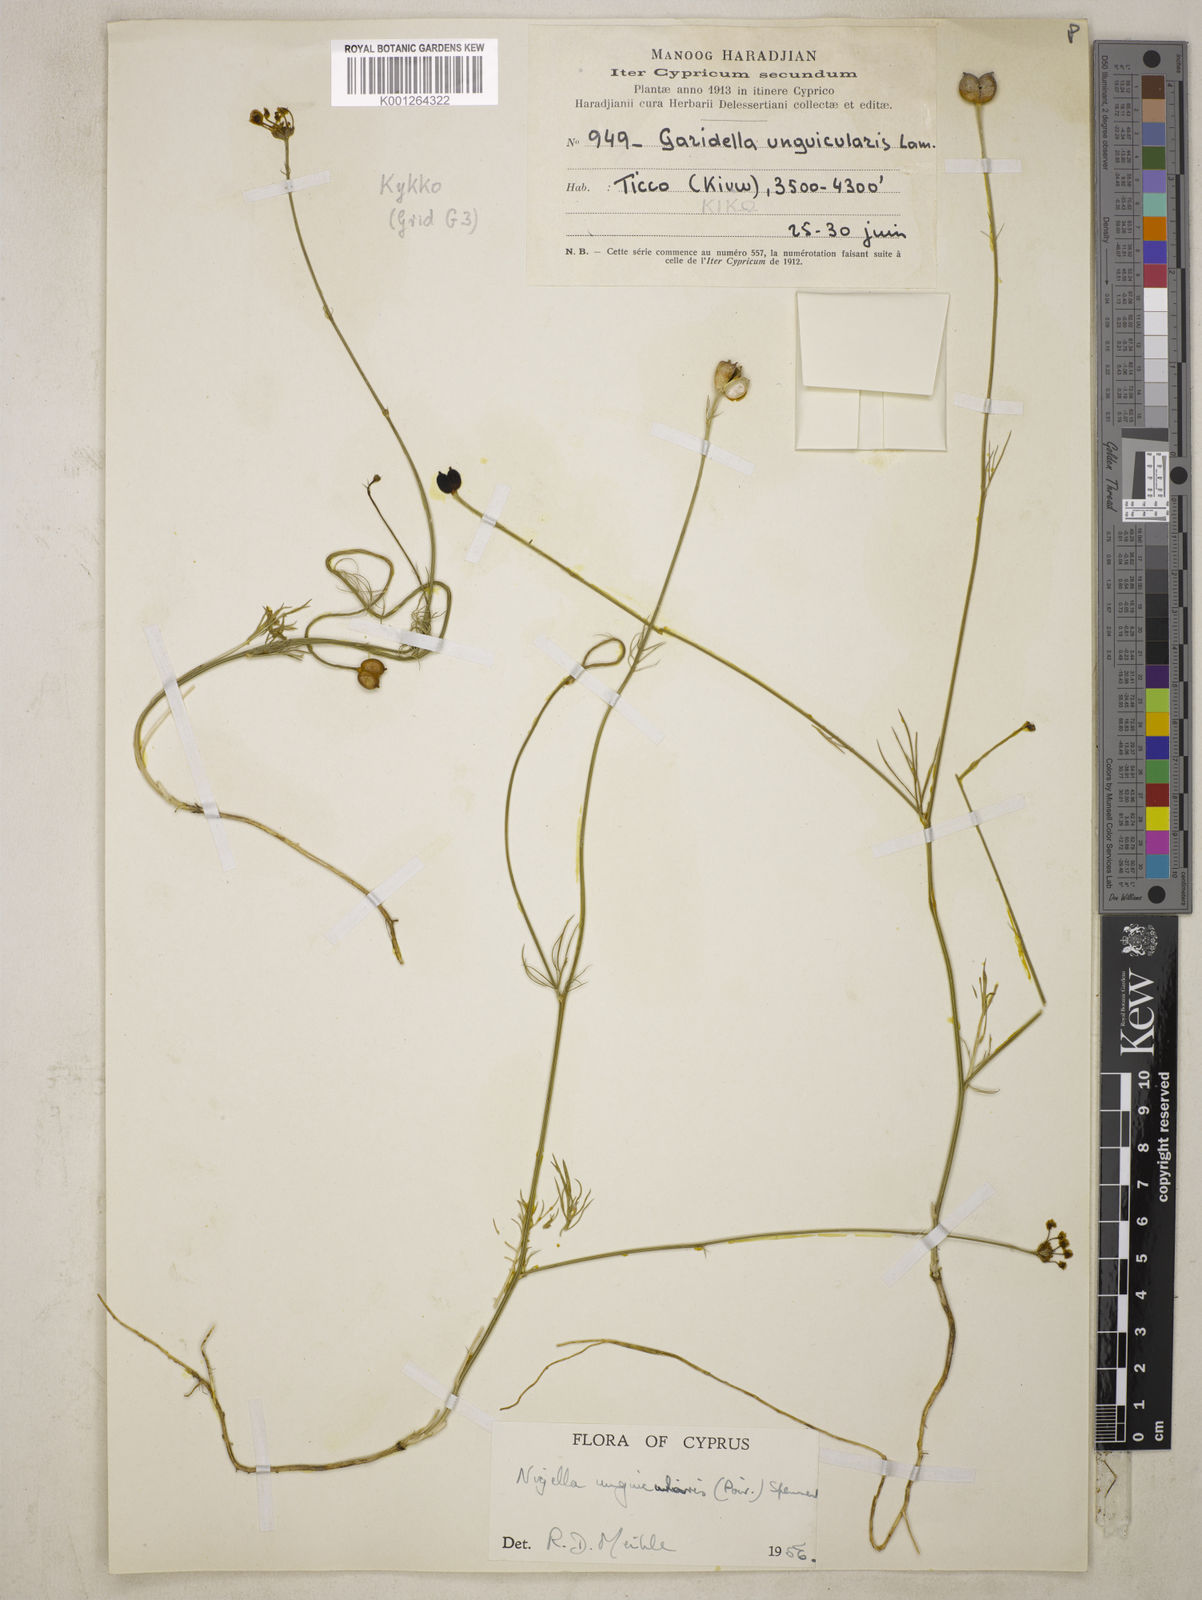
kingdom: Plantae
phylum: Tracheophyta
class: Magnoliopsida
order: Ranunculales
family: Ranunculaceae
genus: Garidella
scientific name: Garidella unguicularis
